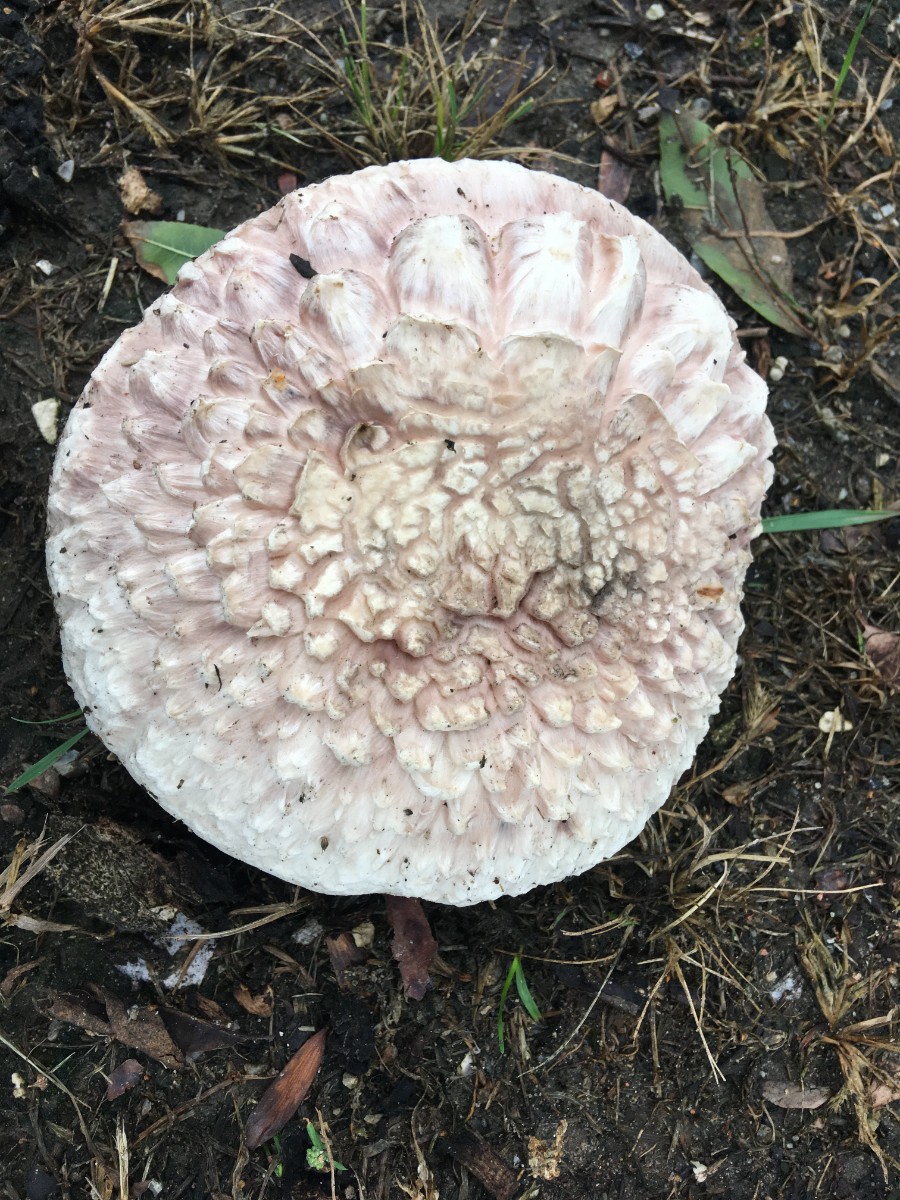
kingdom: Fungi
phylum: Basidiomycota
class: Agaricomycetes
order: Agaricales
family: Agaricaceae
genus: Agaricus
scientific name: Agaricus bernardii
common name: strandengs-champignon
